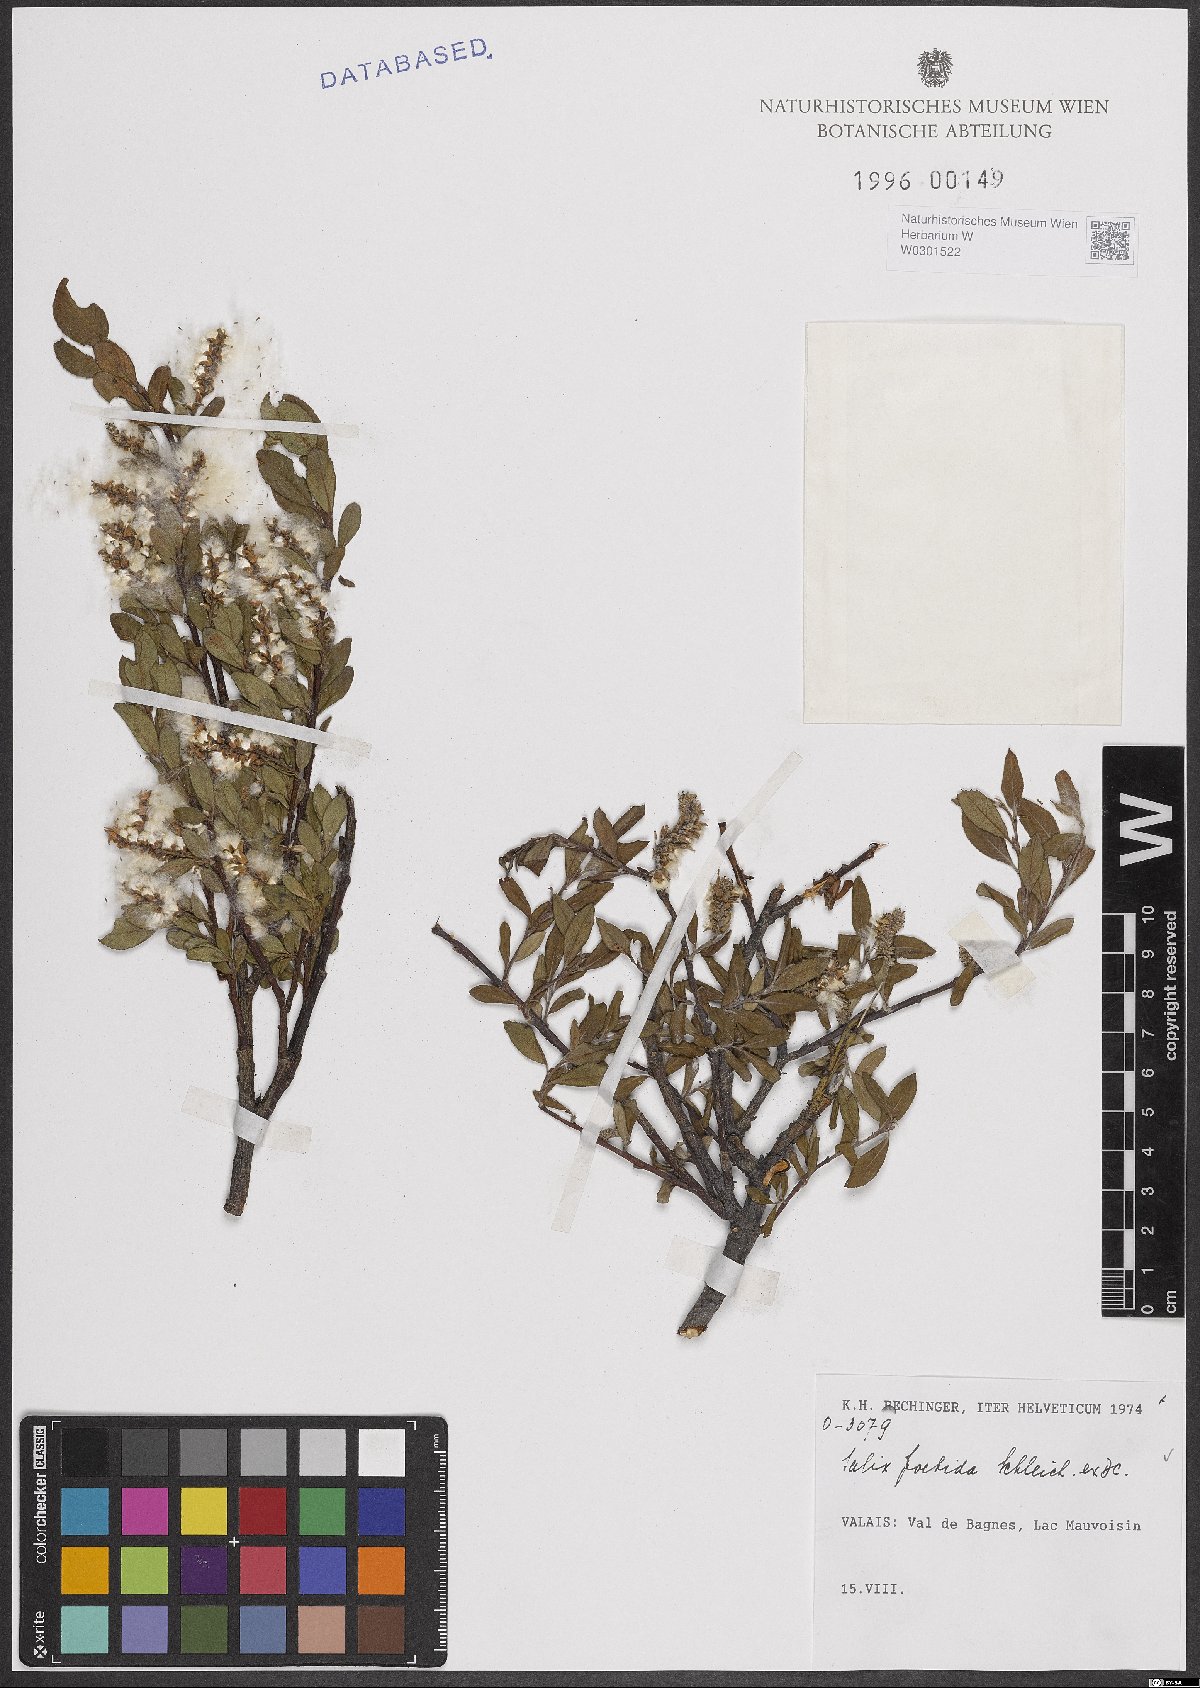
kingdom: Plantae
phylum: Tracheophyta
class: Magnoliopsida
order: Malpighiales
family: Salicaceae
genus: Salix
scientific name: Salix foetida
